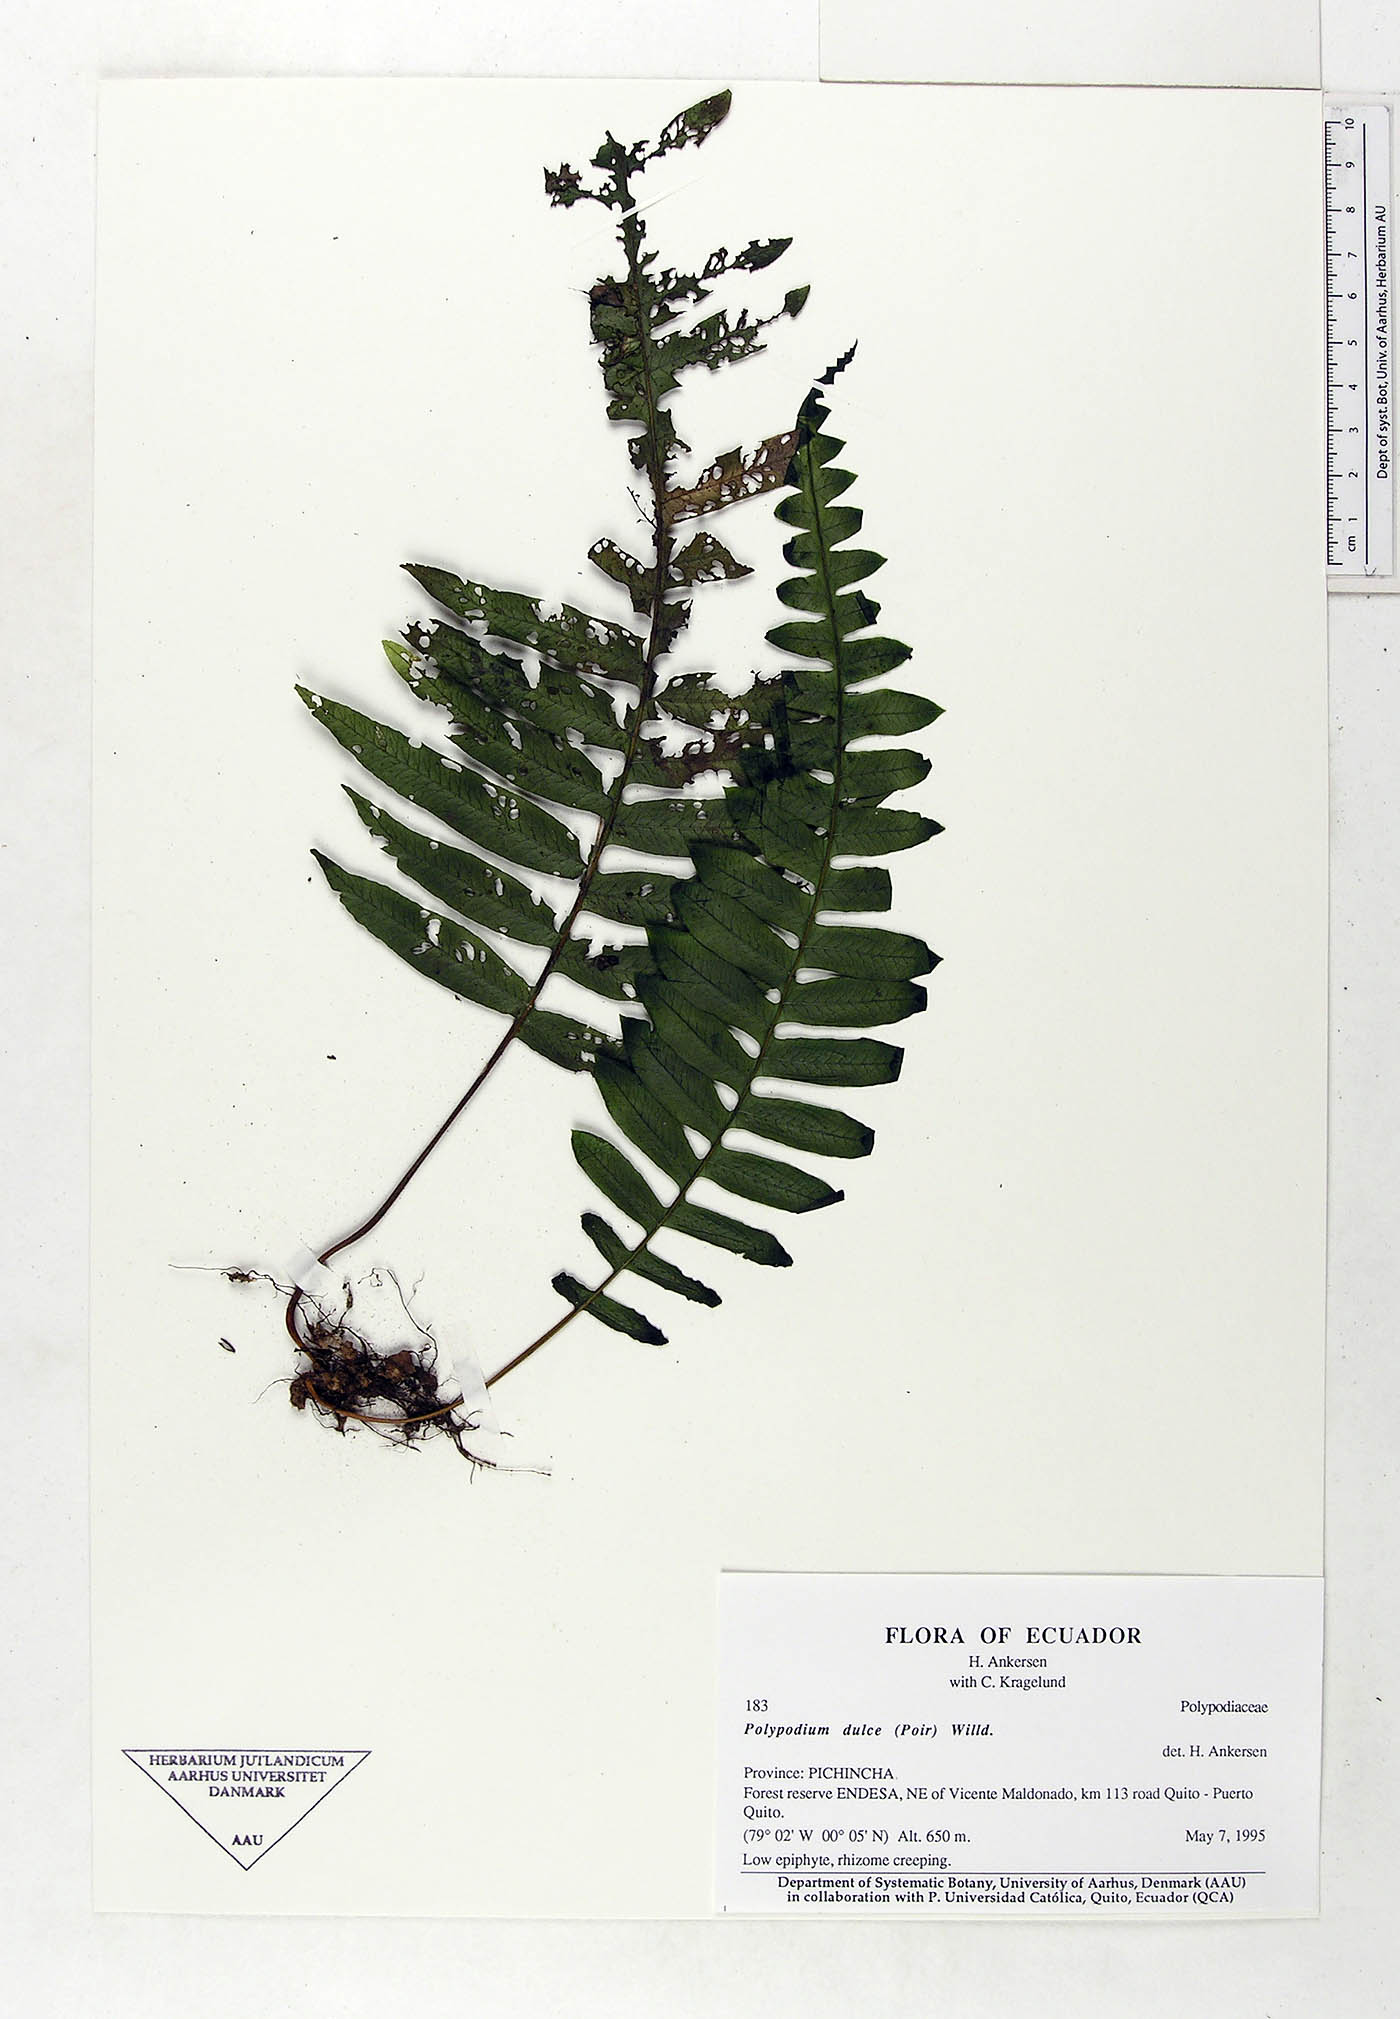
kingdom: Plantae
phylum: Tracheophyta
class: Polypodiopsida
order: Polypodiales
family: Polypodiaceae
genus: Pecluma
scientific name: Pecluma dulcis
